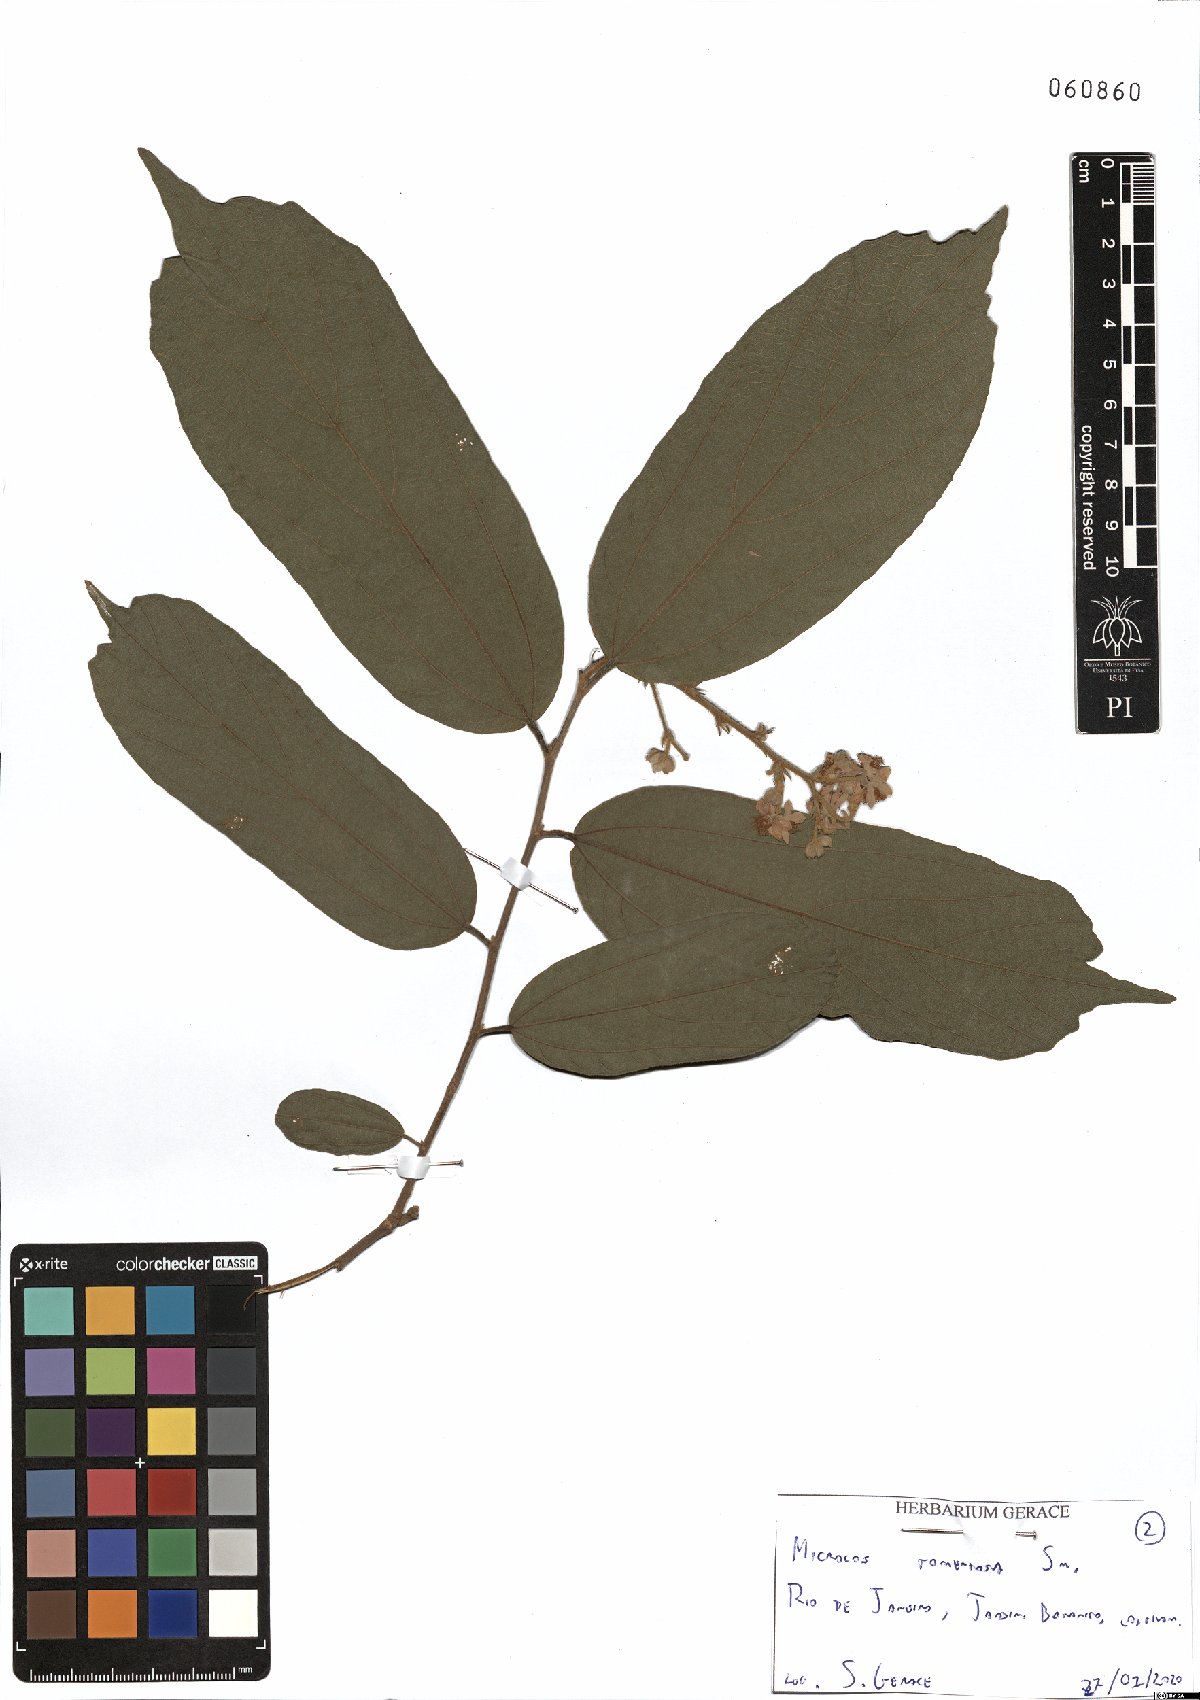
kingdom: Plantae
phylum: Tracheophyta
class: Magnoliopsida
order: Malvales
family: Malvaceae
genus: Microcos
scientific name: Microcos tomentosa
